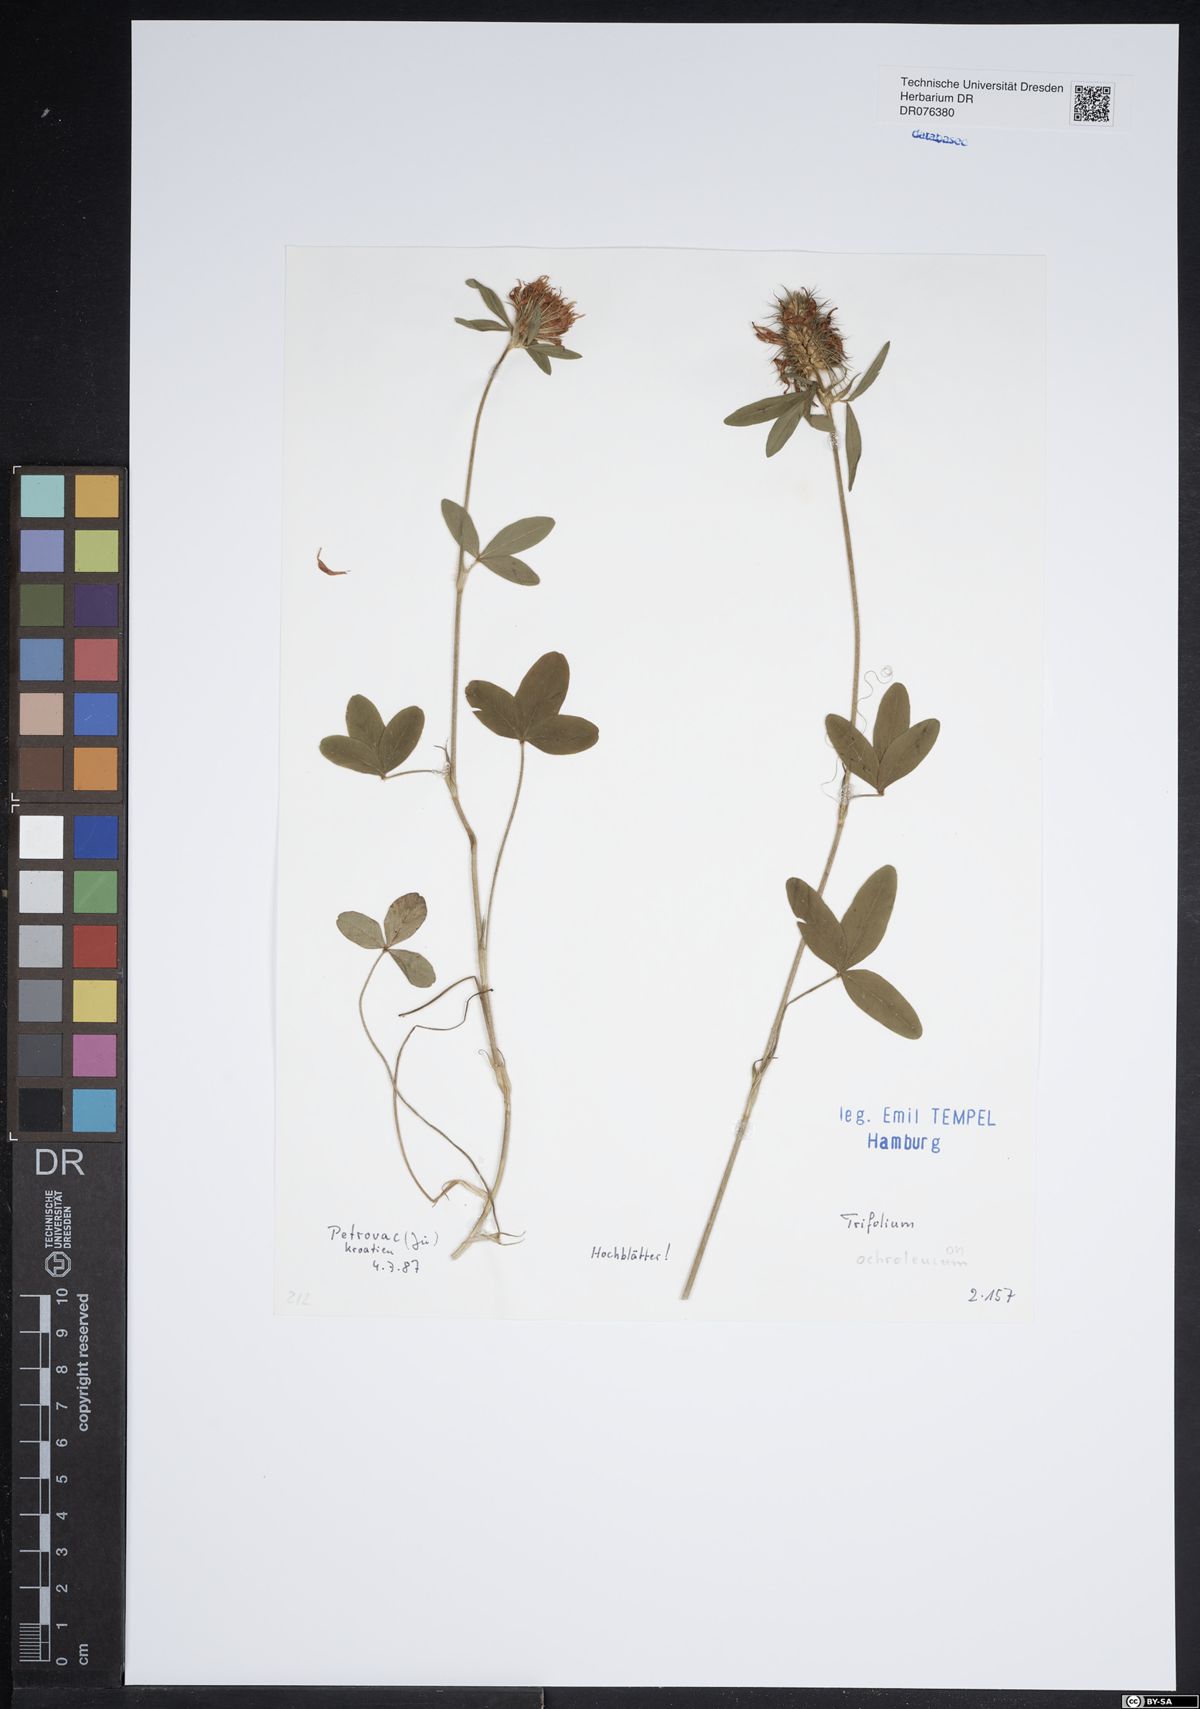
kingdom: Plantae
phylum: Tracheophyta
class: Magnoliopsida
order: Fabales
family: Fabaceae
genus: Trifolium
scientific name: Trifolium ochroleucon
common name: Sulphur clover
